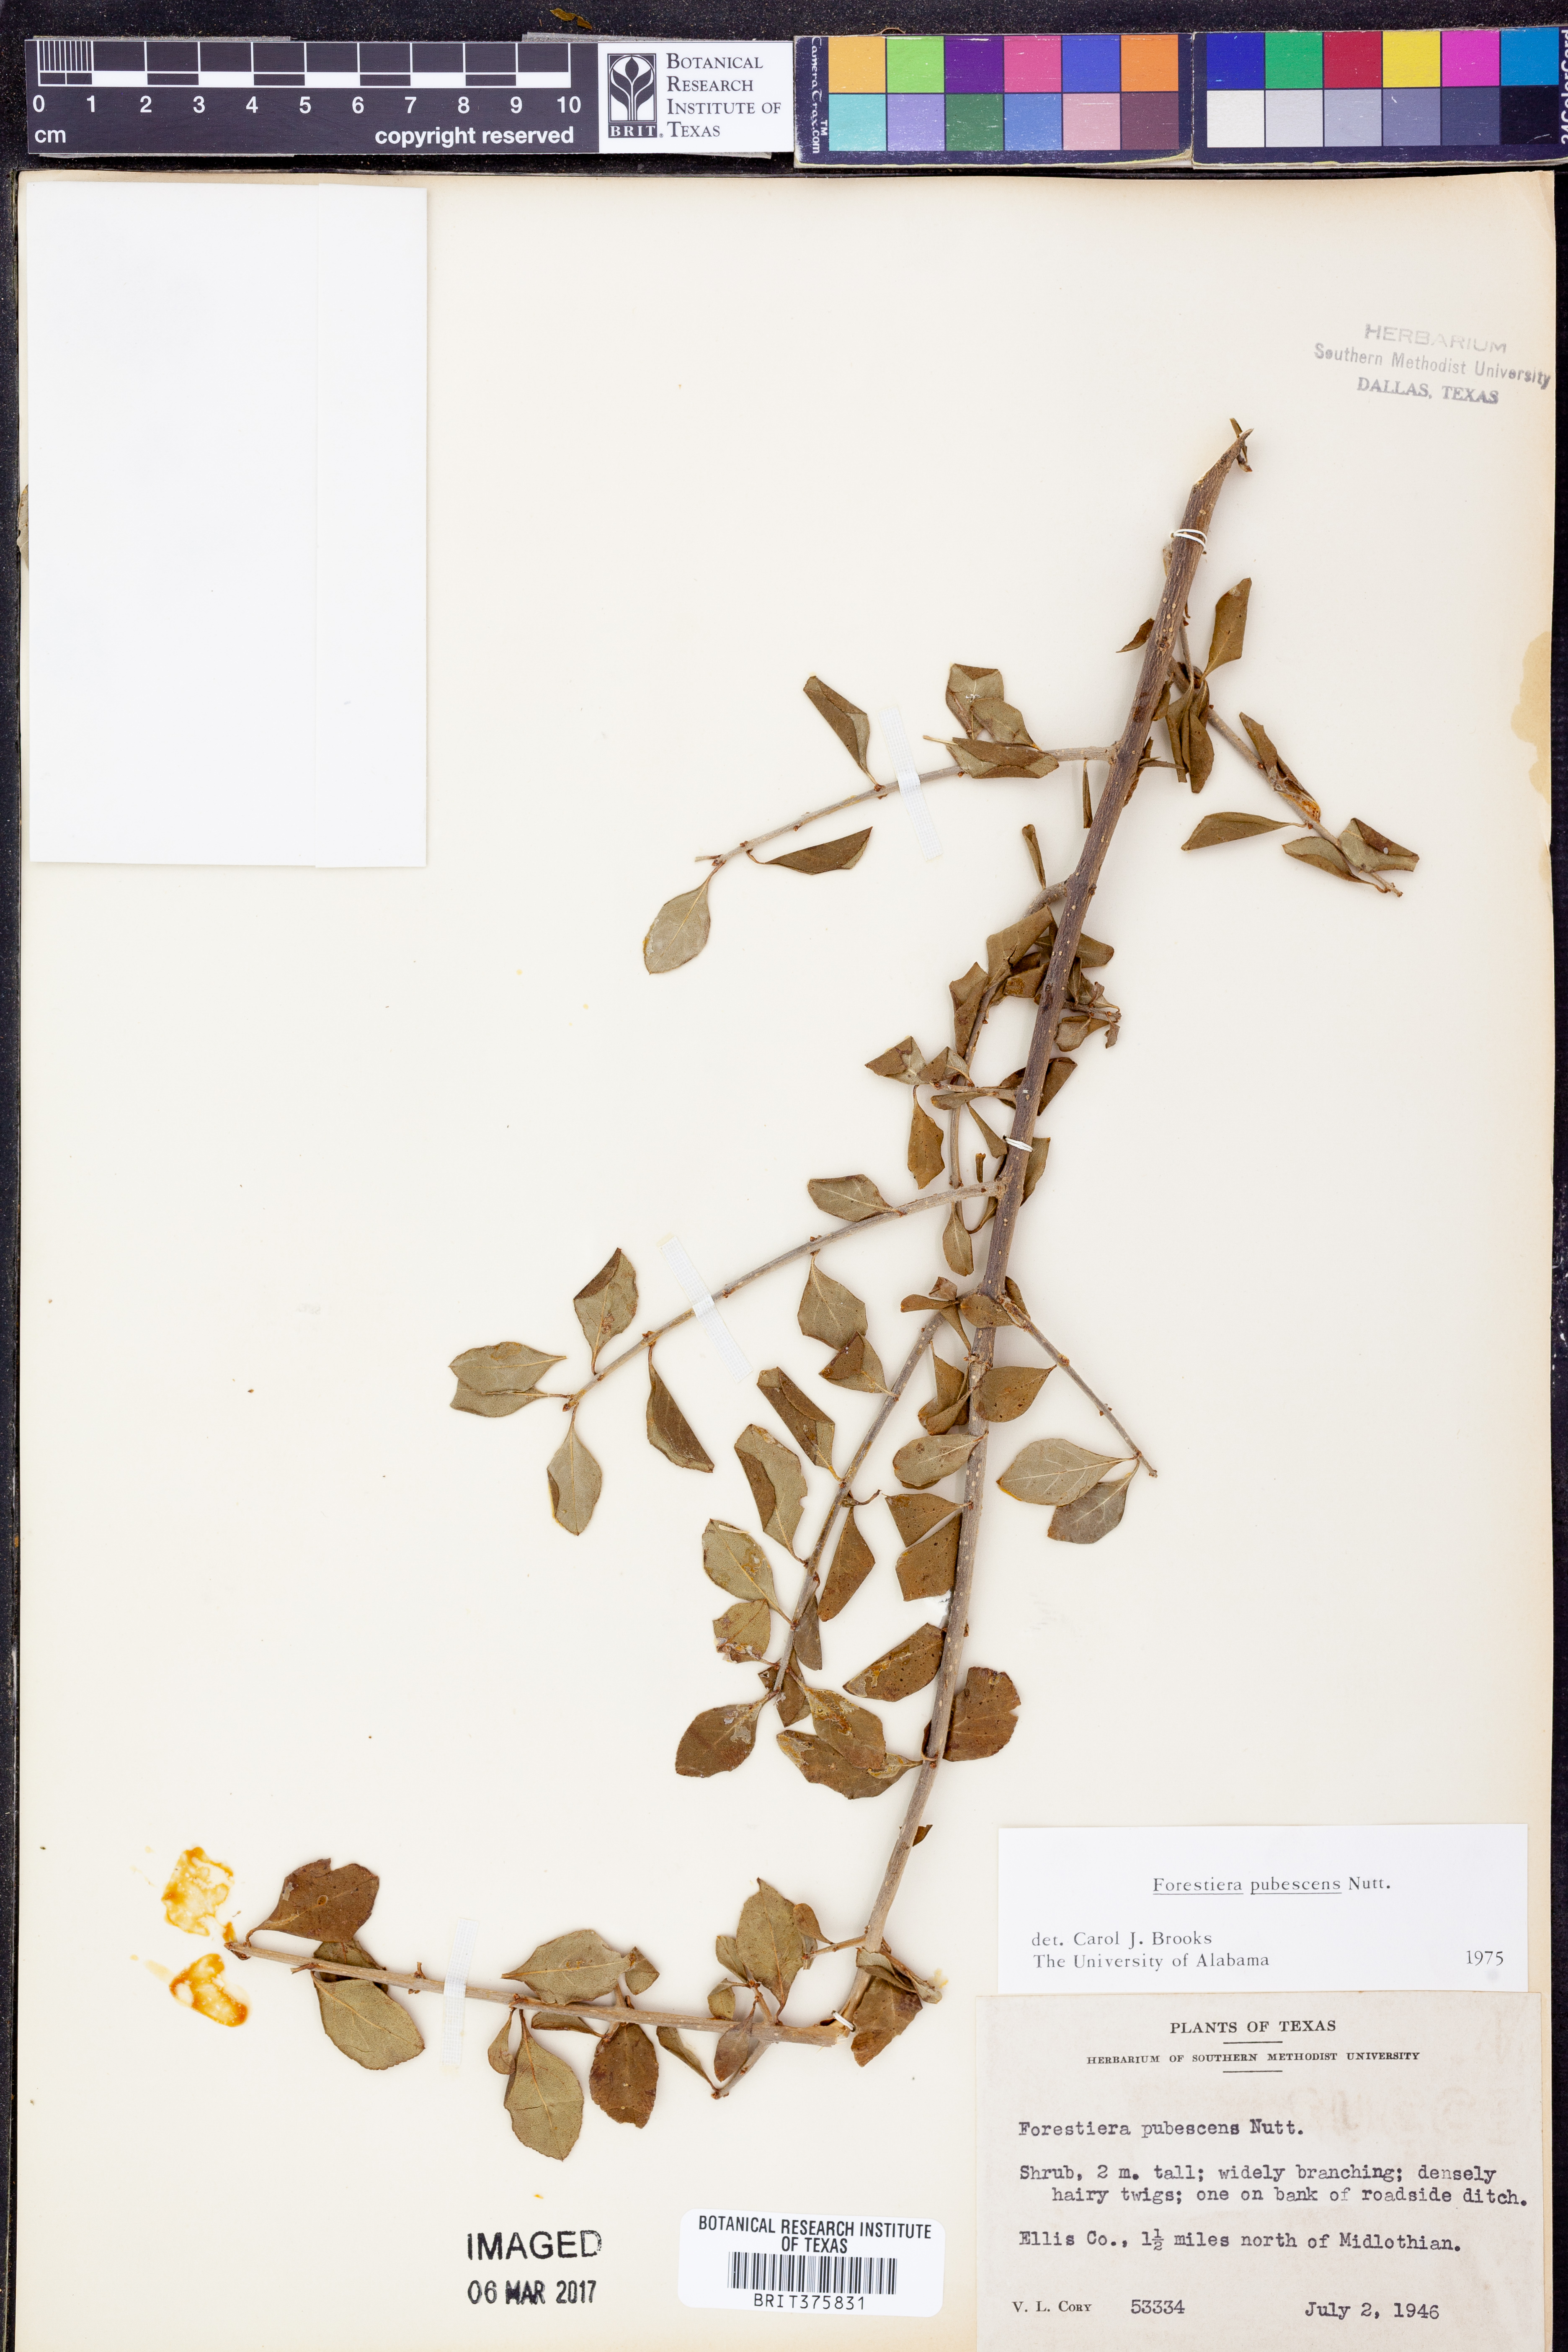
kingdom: Plantae
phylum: Tracheophyta
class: Magnoliopsida
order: Lamiales
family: Oleaceae
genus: Forestiera
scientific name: Forestiera pubescens
